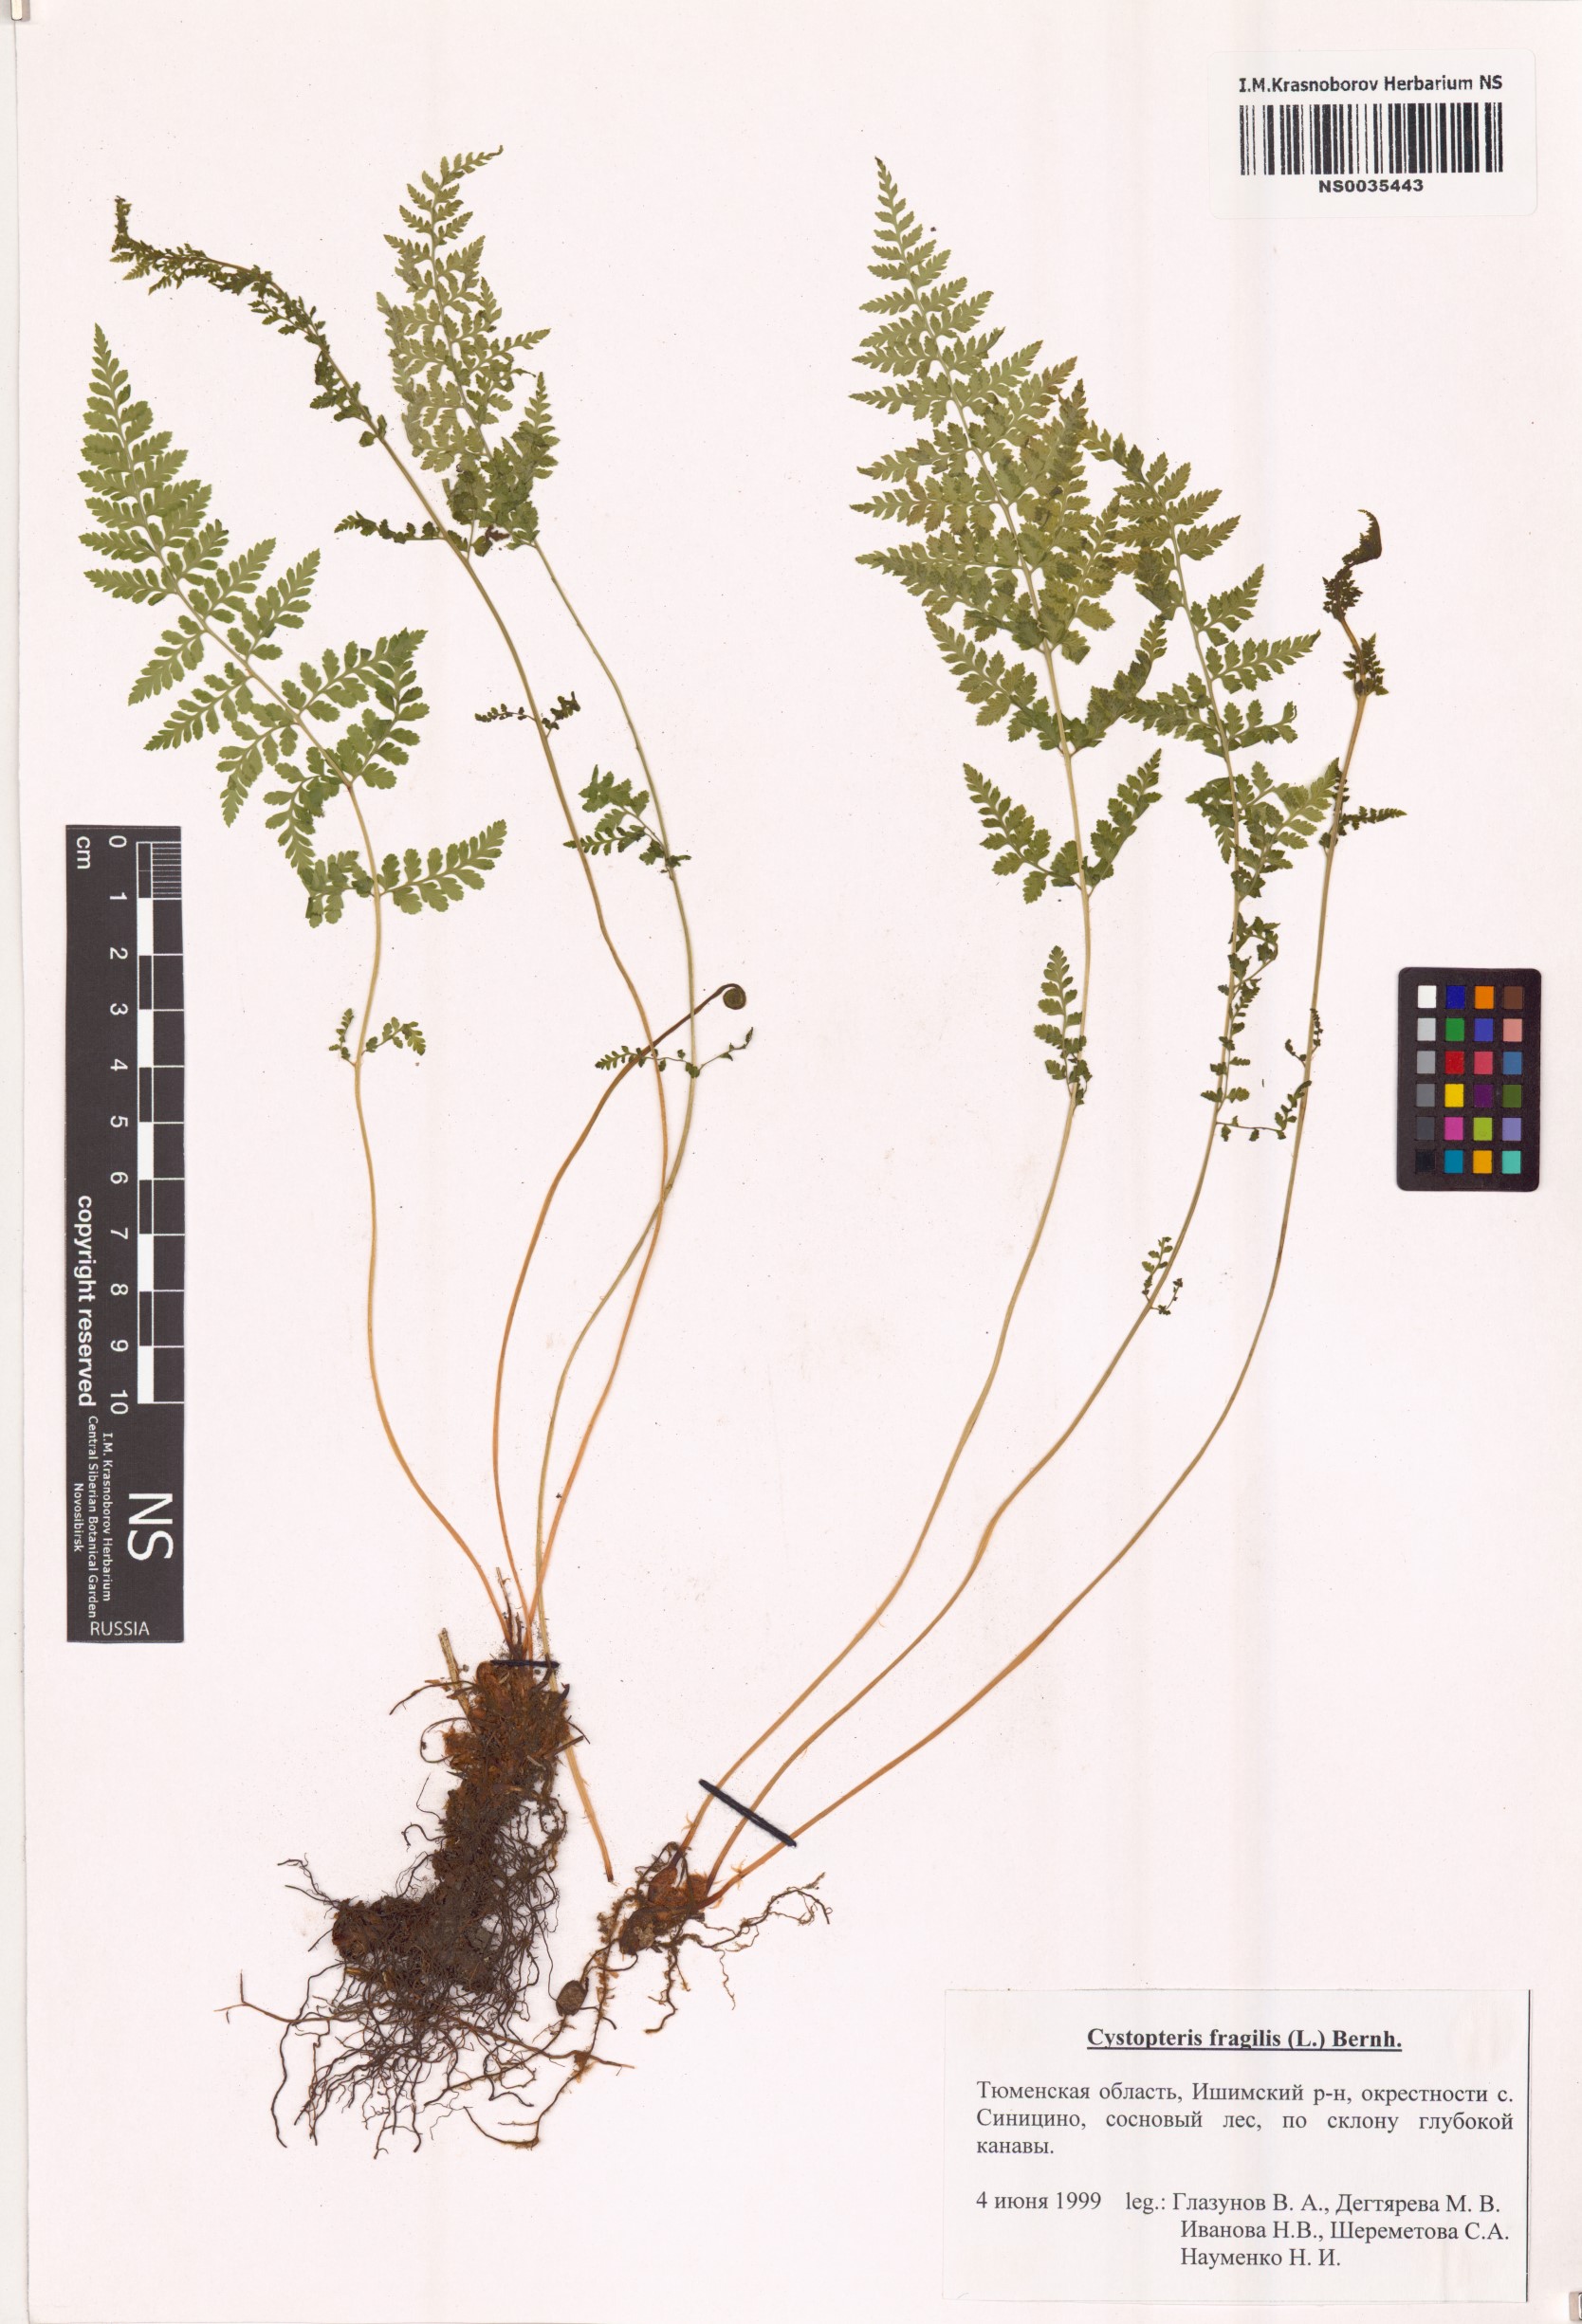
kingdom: Plantae
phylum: Tracheophyta
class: Polypodiopsida
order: Polypodiales
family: Cystopteridaceae
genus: Cystopteris
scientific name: Cystopteris fragilis
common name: Brittle bladder fern
